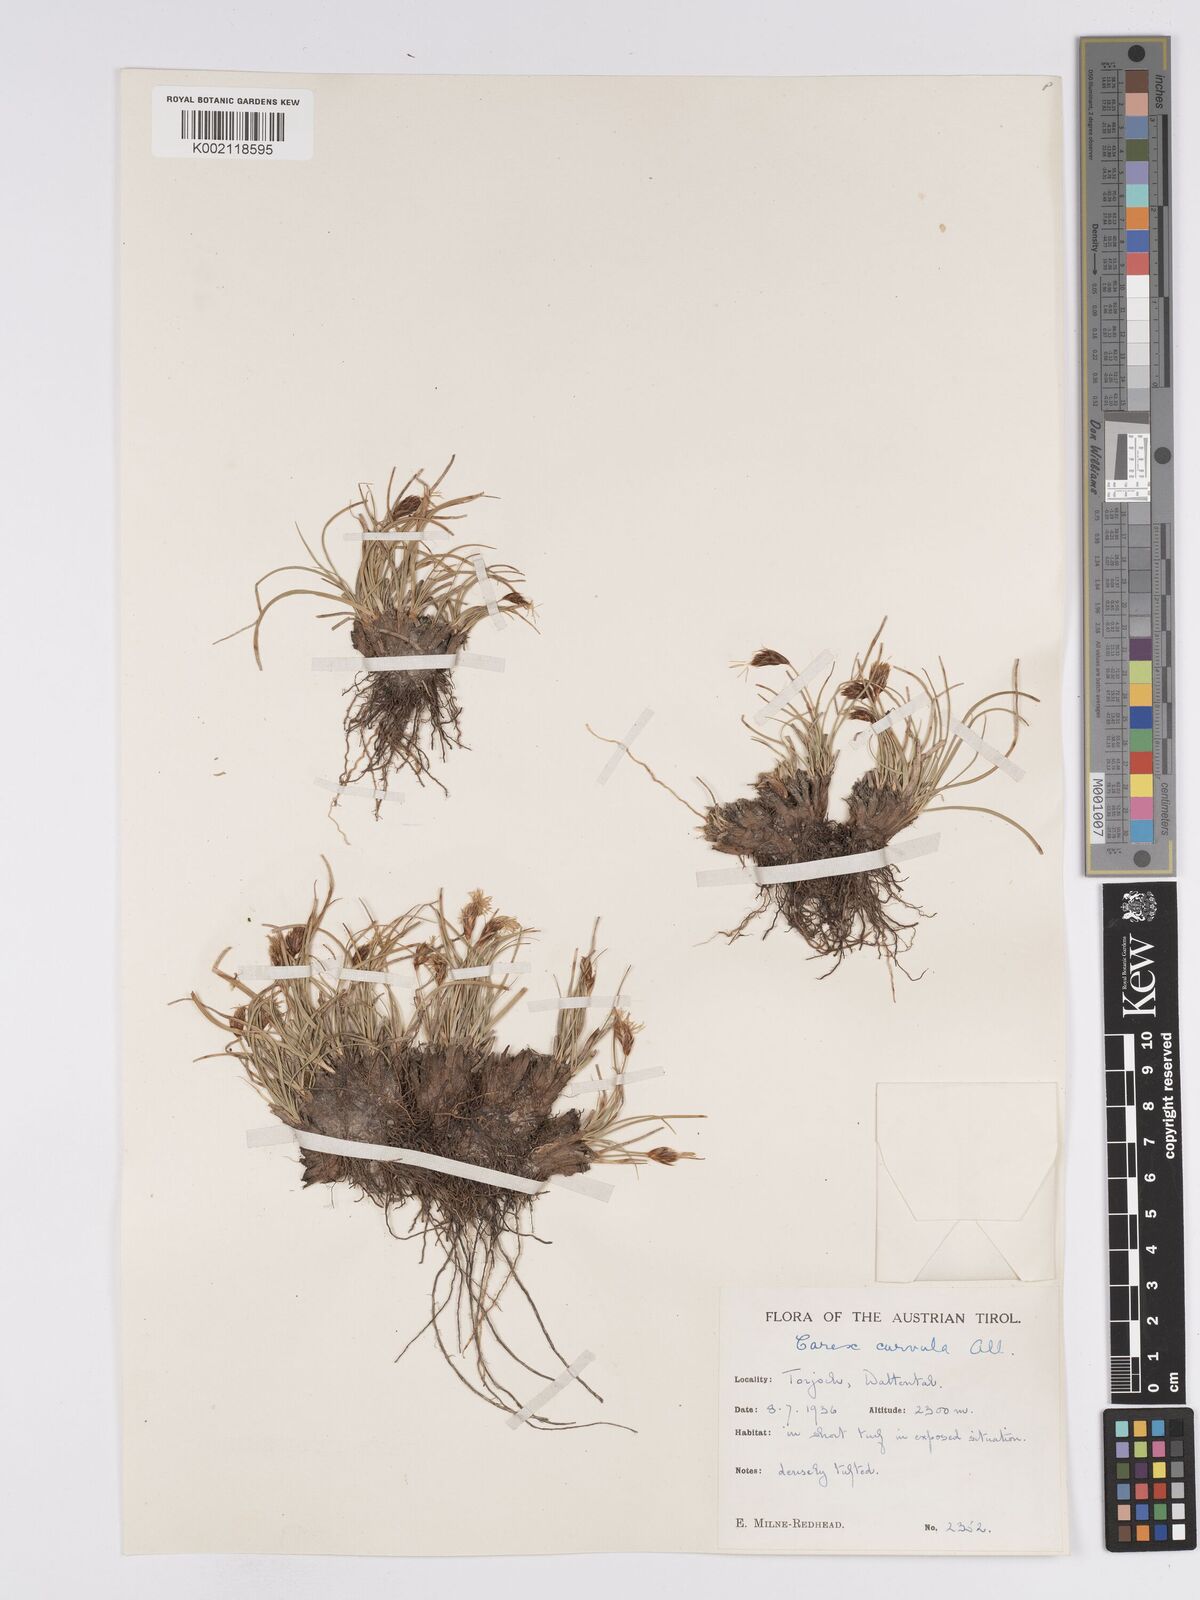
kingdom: Plantae
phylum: Tracheophyta
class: Liliopsida
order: Poales
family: Cyperaceae
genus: Carex
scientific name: Carex curvula
